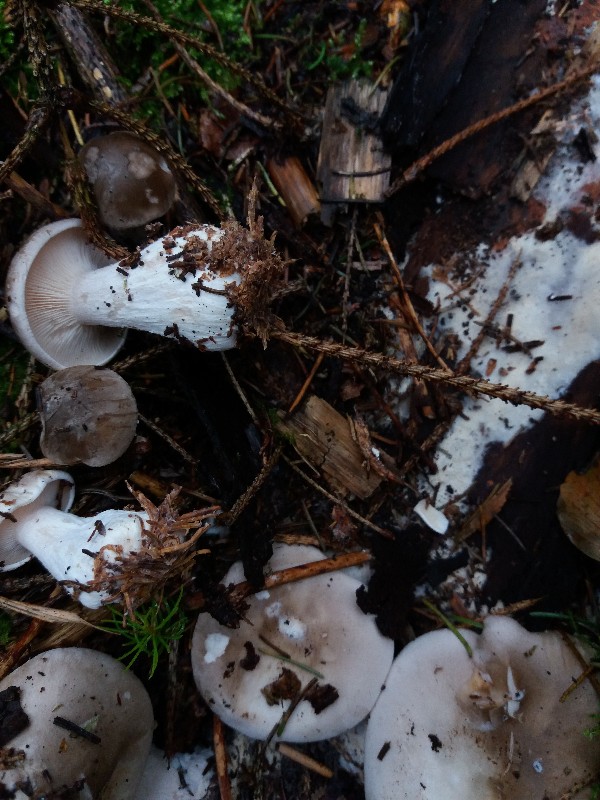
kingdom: Fungi
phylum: Basidiomycota
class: Agaricomycetes
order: Agaricales
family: Tricholomataceae
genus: Clitocybe
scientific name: Clitocybe nebularis
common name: tåge-tragthat
